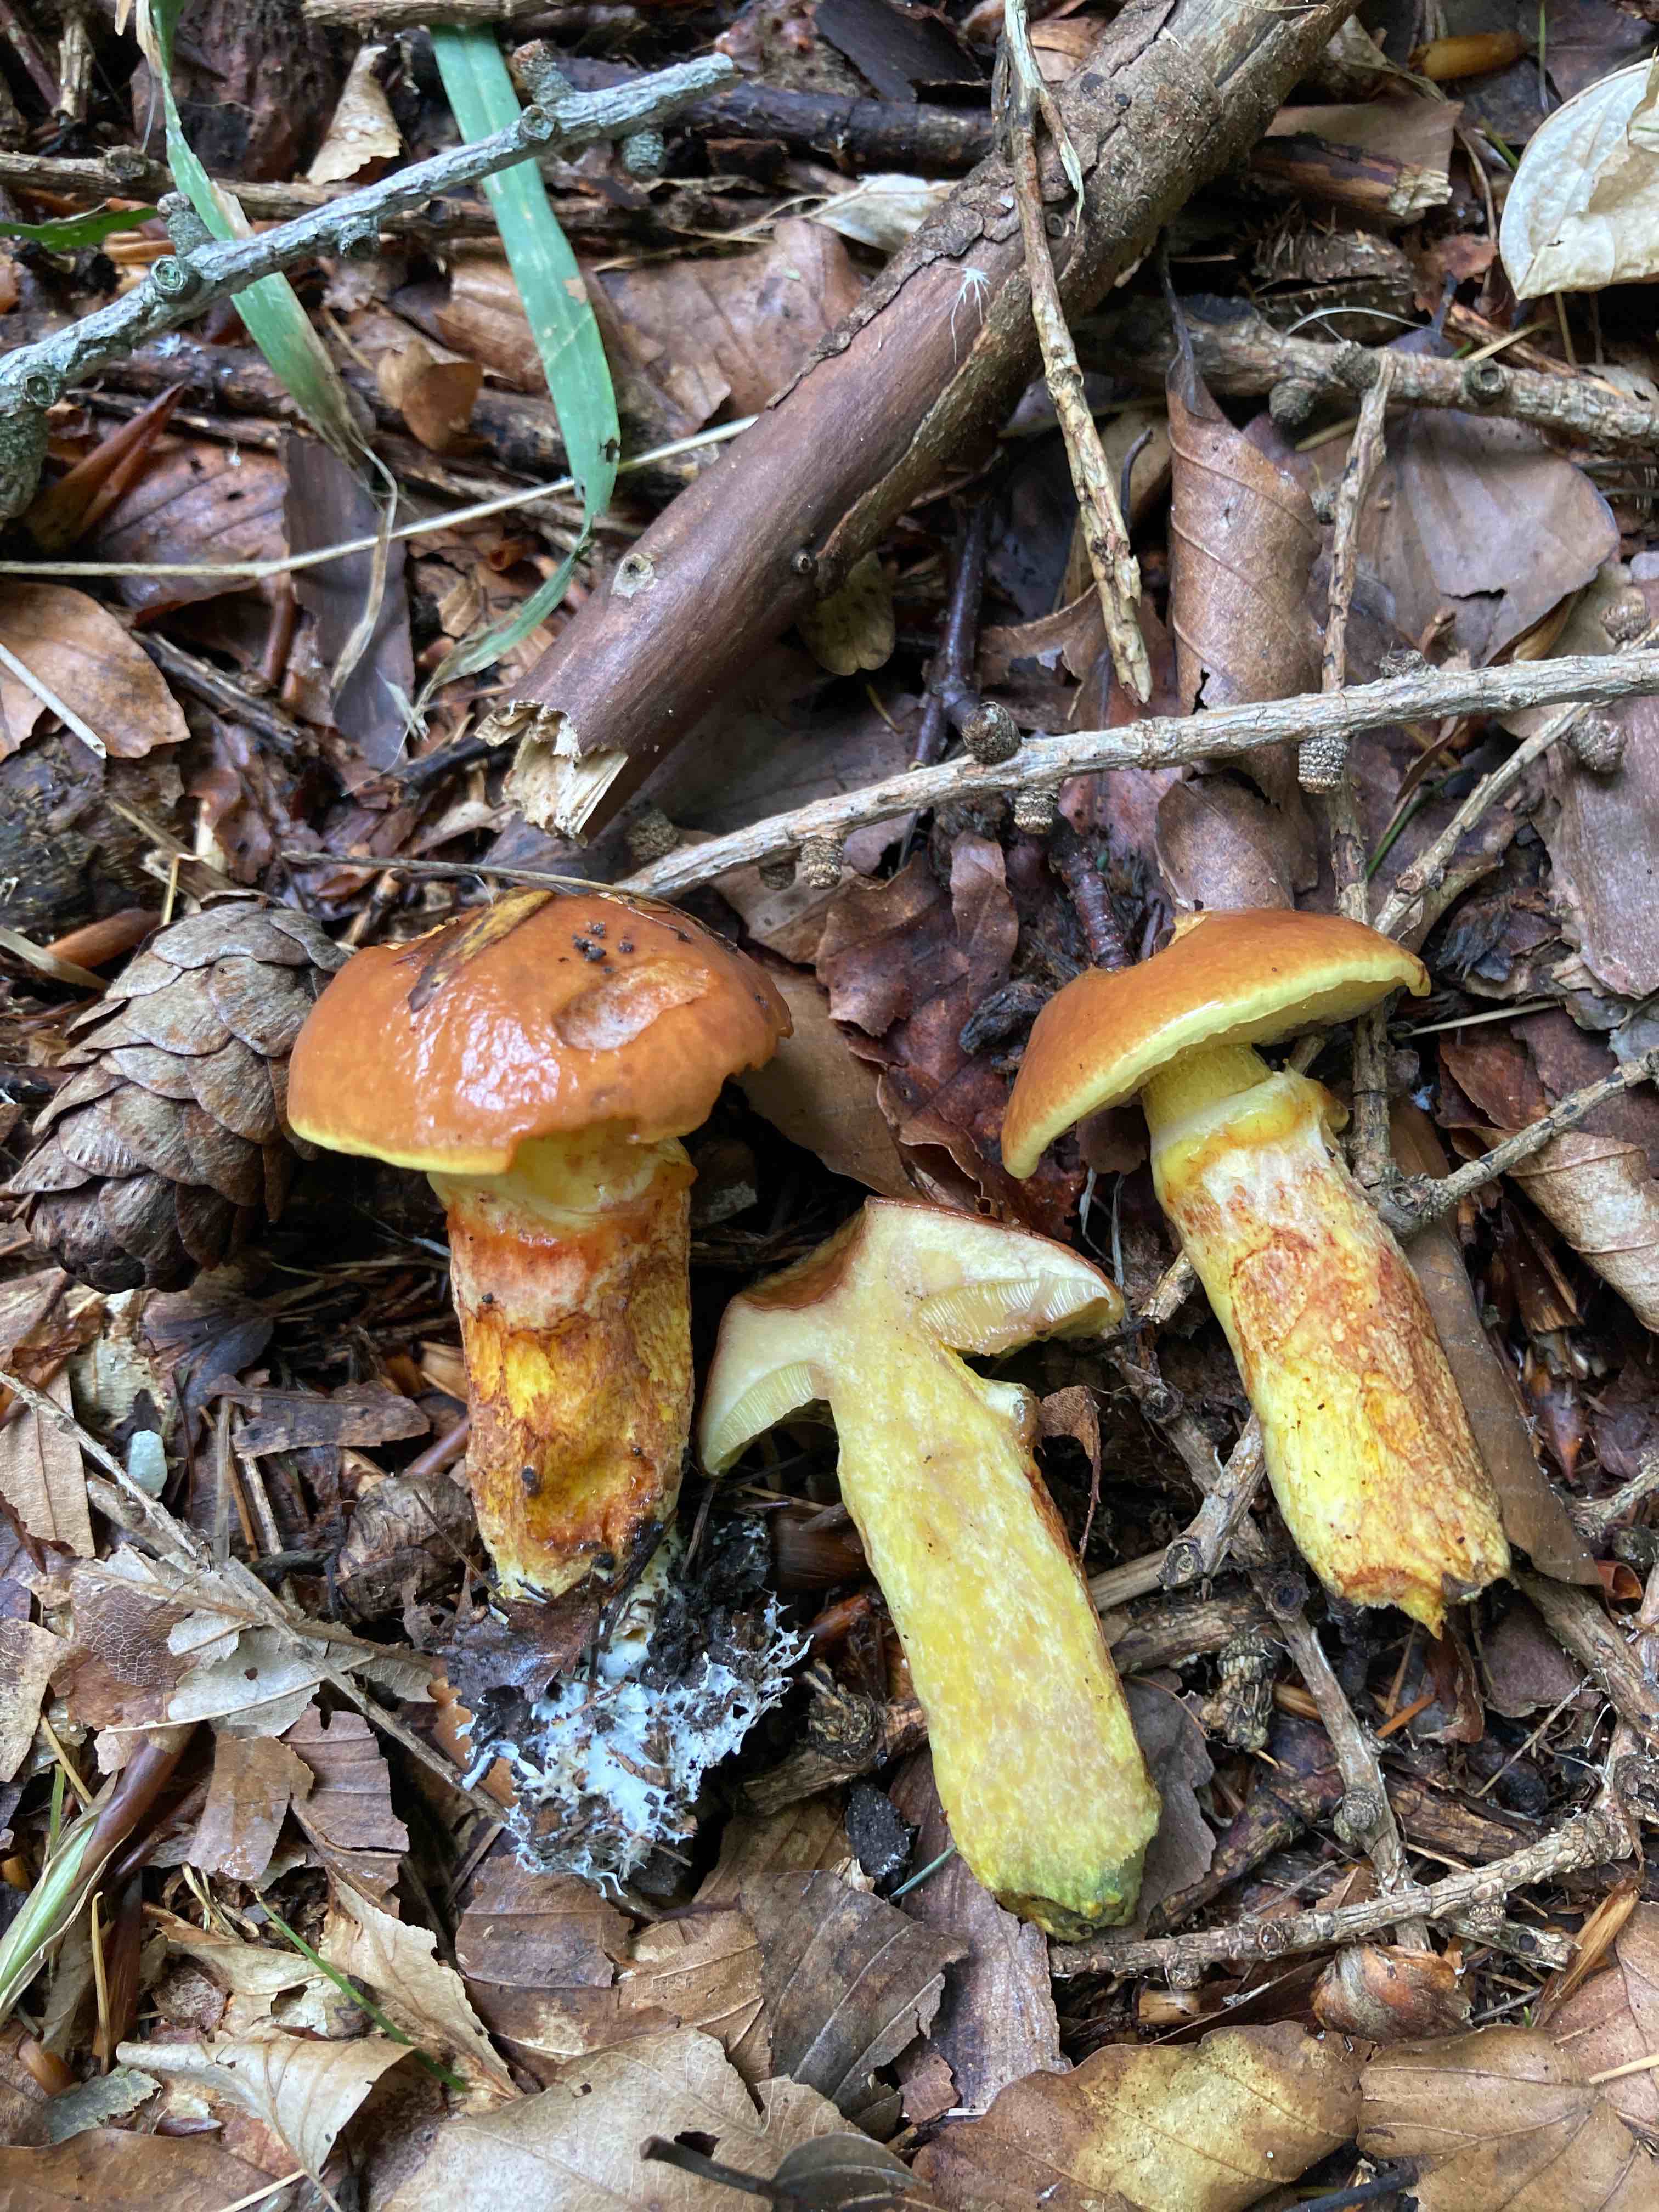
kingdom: Fungi
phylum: Basidiomycota
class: Agaricomycetes
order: Boletales
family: Suillaceae
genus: Suillus
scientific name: Suillus grevillei
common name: lærke-slimrørhat
